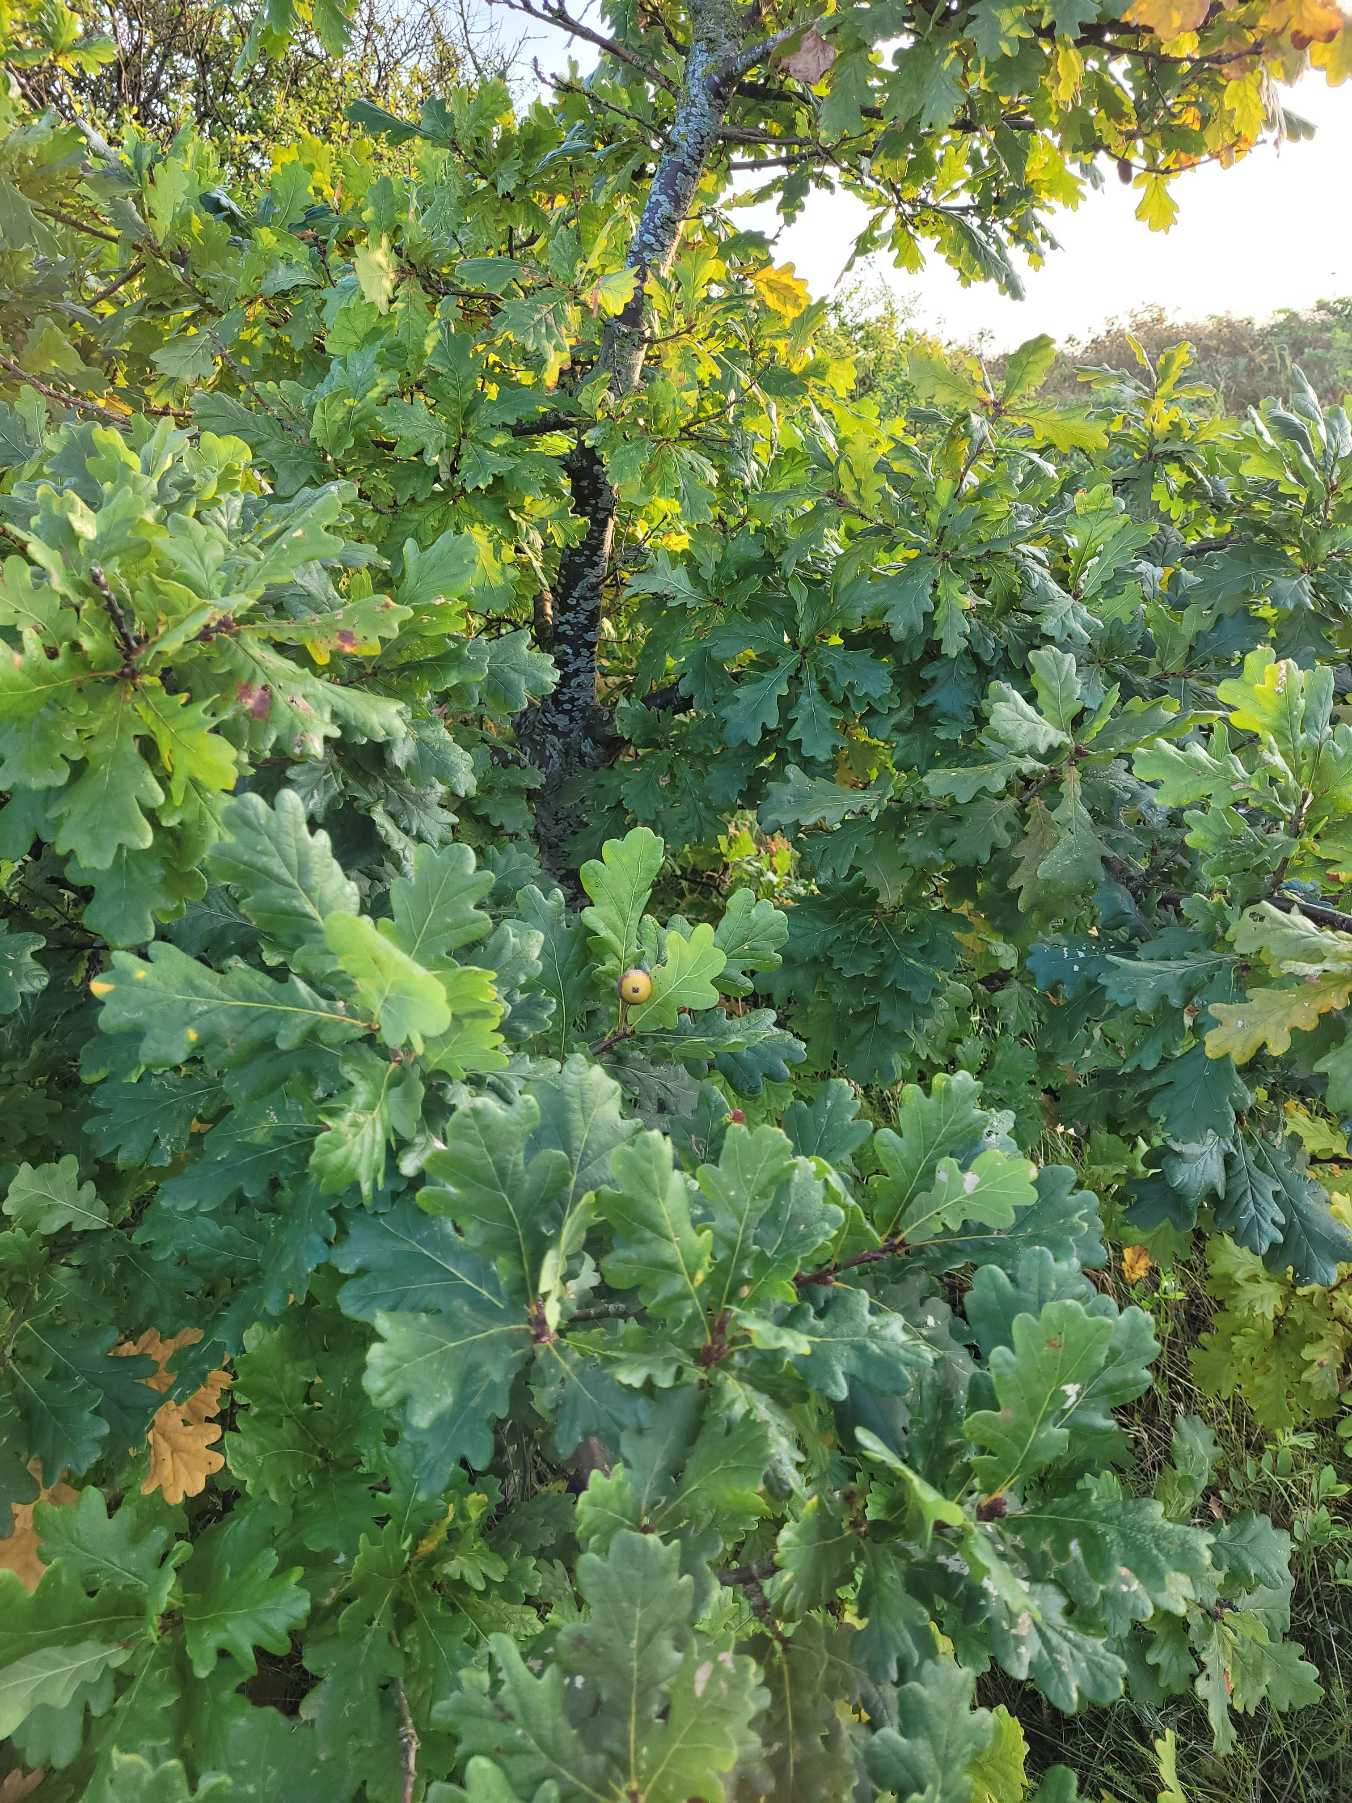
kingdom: Plantae
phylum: Tracheophyta
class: Magnoliopsida
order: Fagales
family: Fagaceae
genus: Quercus
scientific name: Quercus robur
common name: Stilk-eg/almindelig eg
